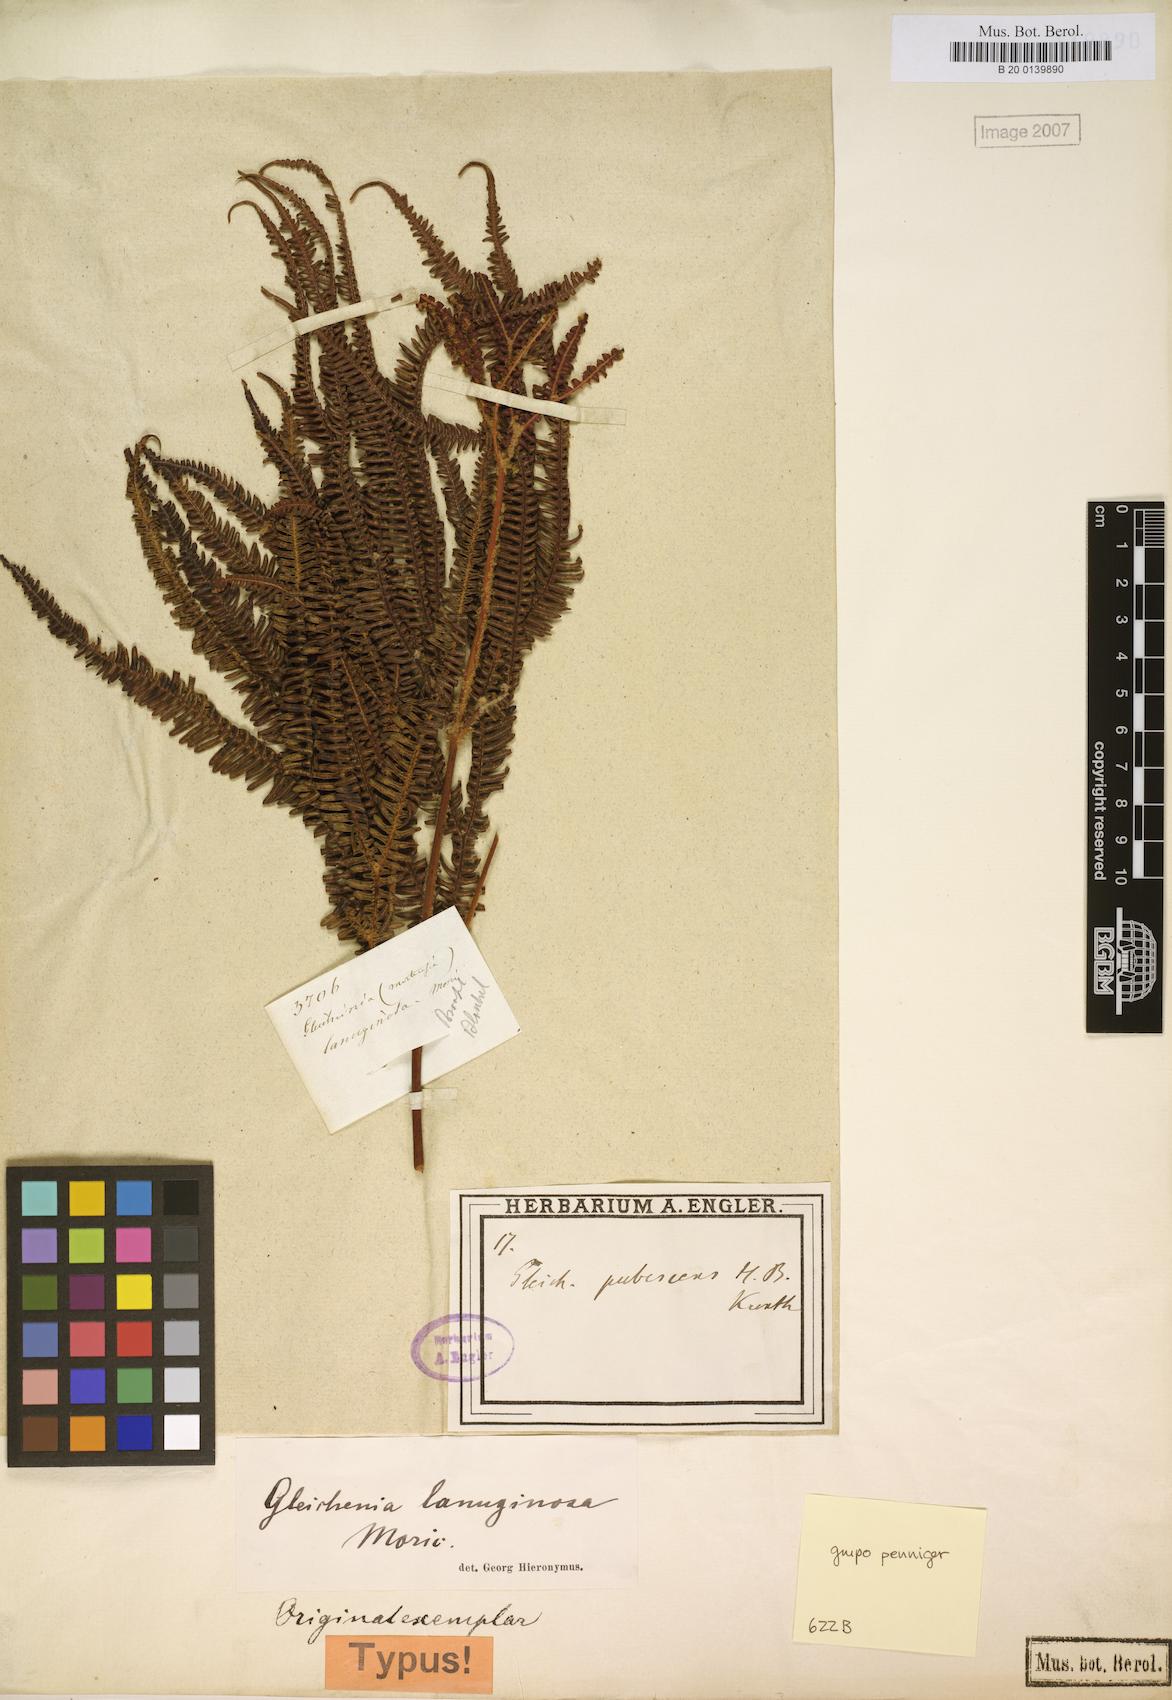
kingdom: Plantae
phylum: Tracheophyta
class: Polypodiopsida
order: Gleicheniales
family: Gleicheniaceae
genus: Sticherus
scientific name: Sticherus lanuginosus
